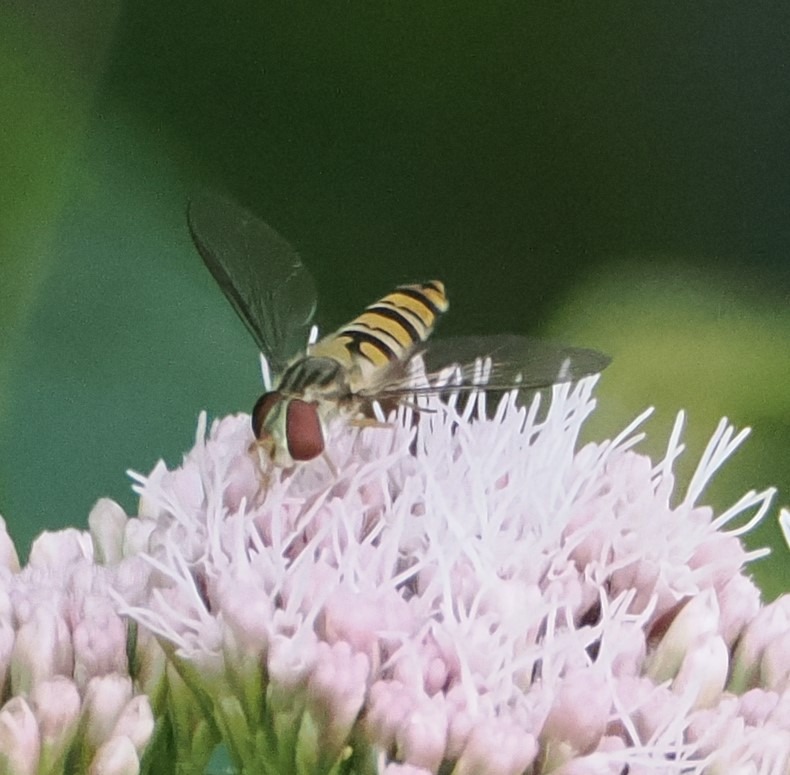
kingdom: Animalia
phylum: Arthropoda
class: Insecta
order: Diptera
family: Syrphidae
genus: Episyrphus
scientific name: Episyrphus balteatus
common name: Dobbeltbåndet svirreflue
